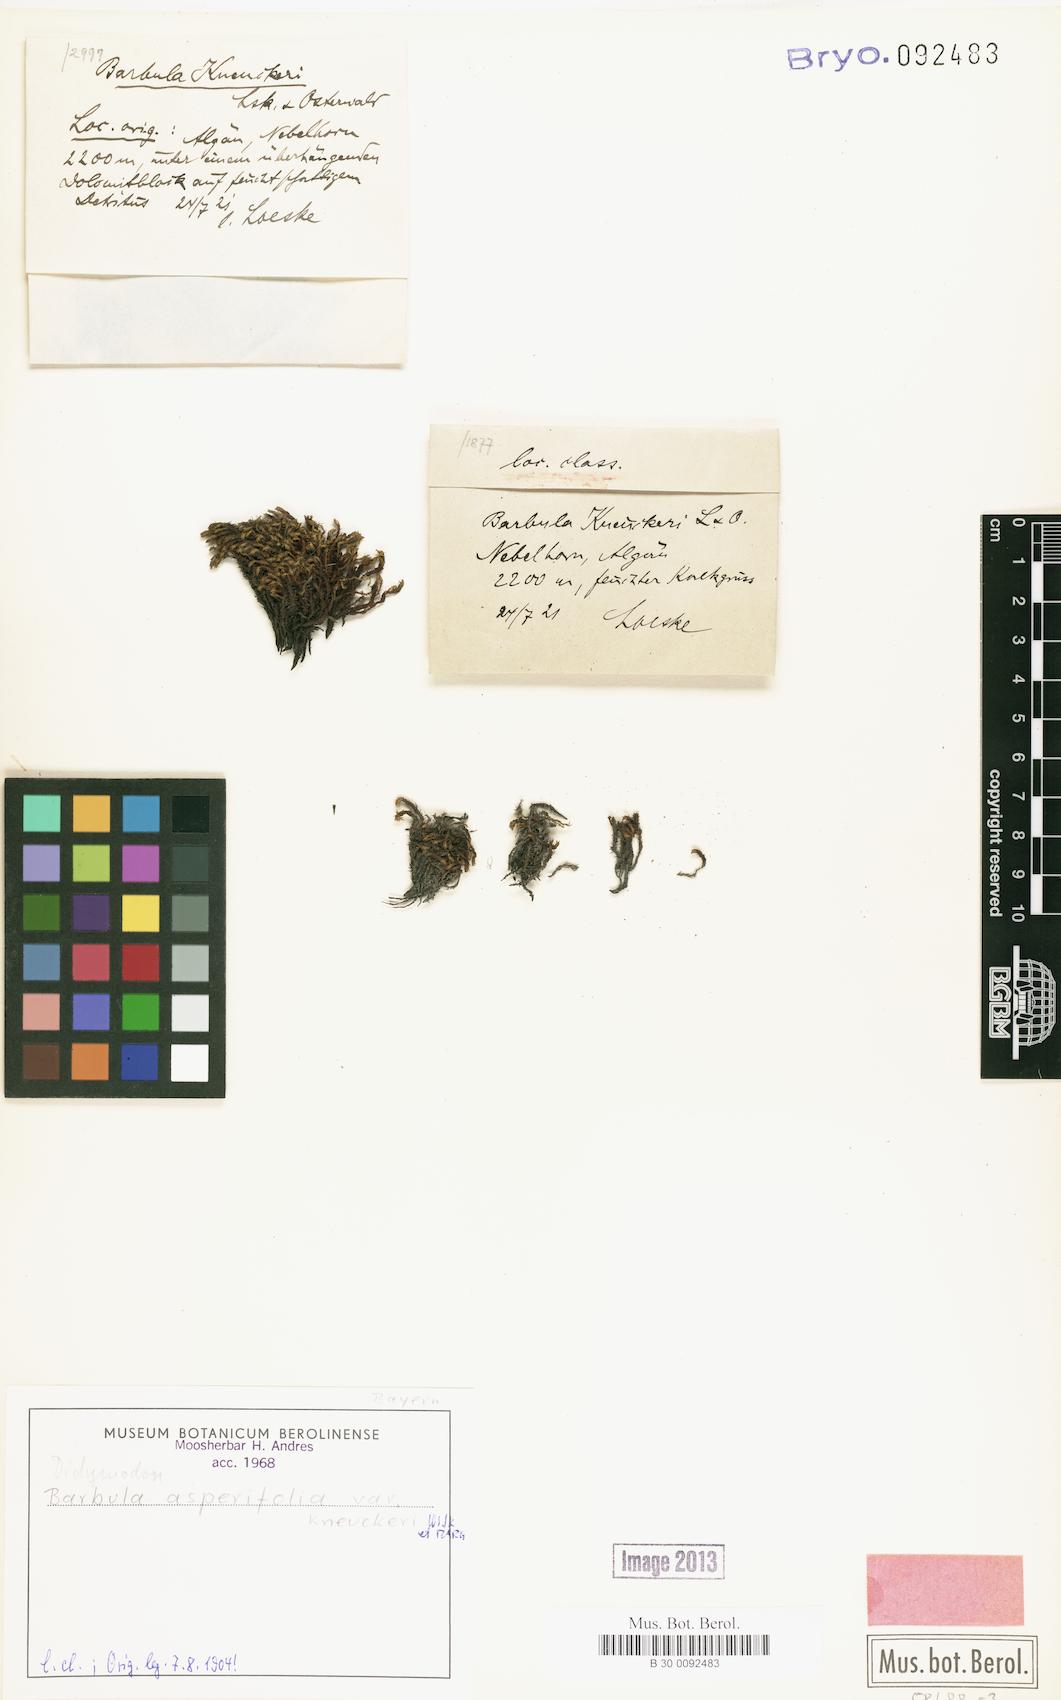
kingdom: Plantae
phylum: Bryophyta
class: Bryopsida
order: Pottiales
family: Pottiaceae
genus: Husnotiella
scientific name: Husnotiella asperifolia
